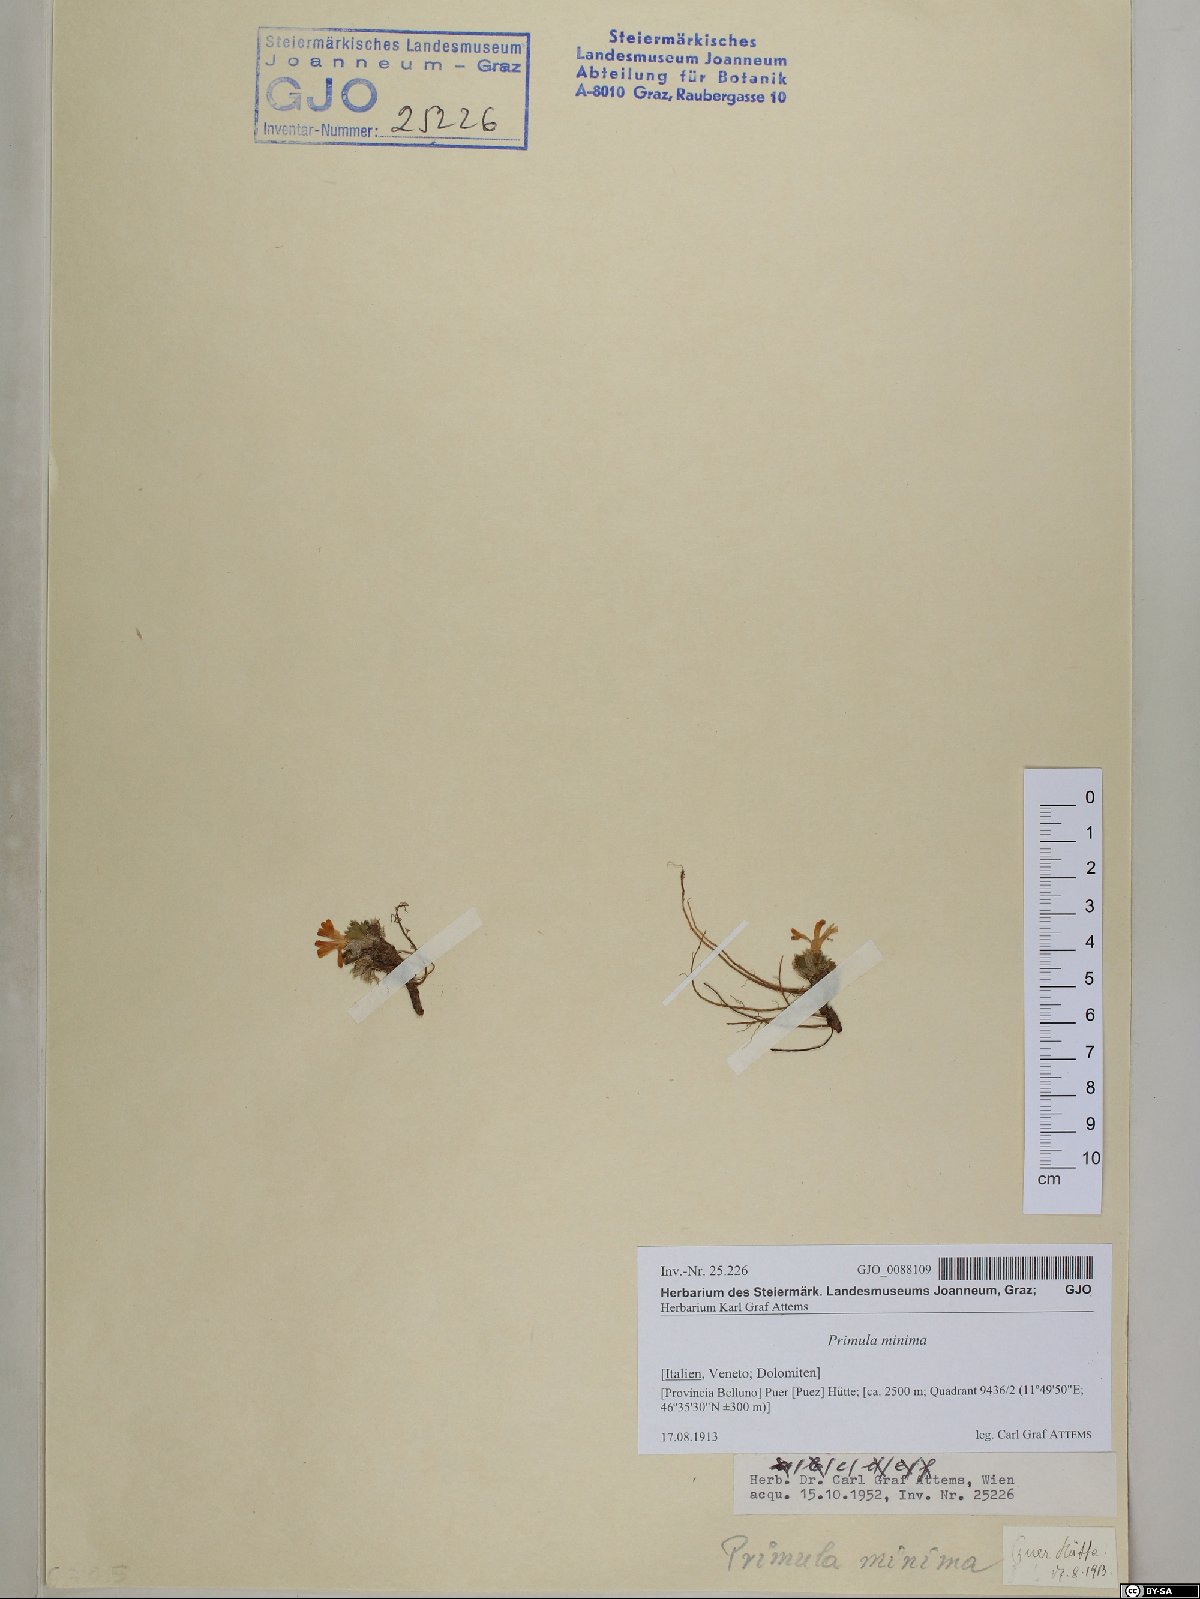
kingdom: Plantae
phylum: Tracheophyta
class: Magnoliopsida
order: Ericales
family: Primulaceae
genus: Primula
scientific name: Primula minima
